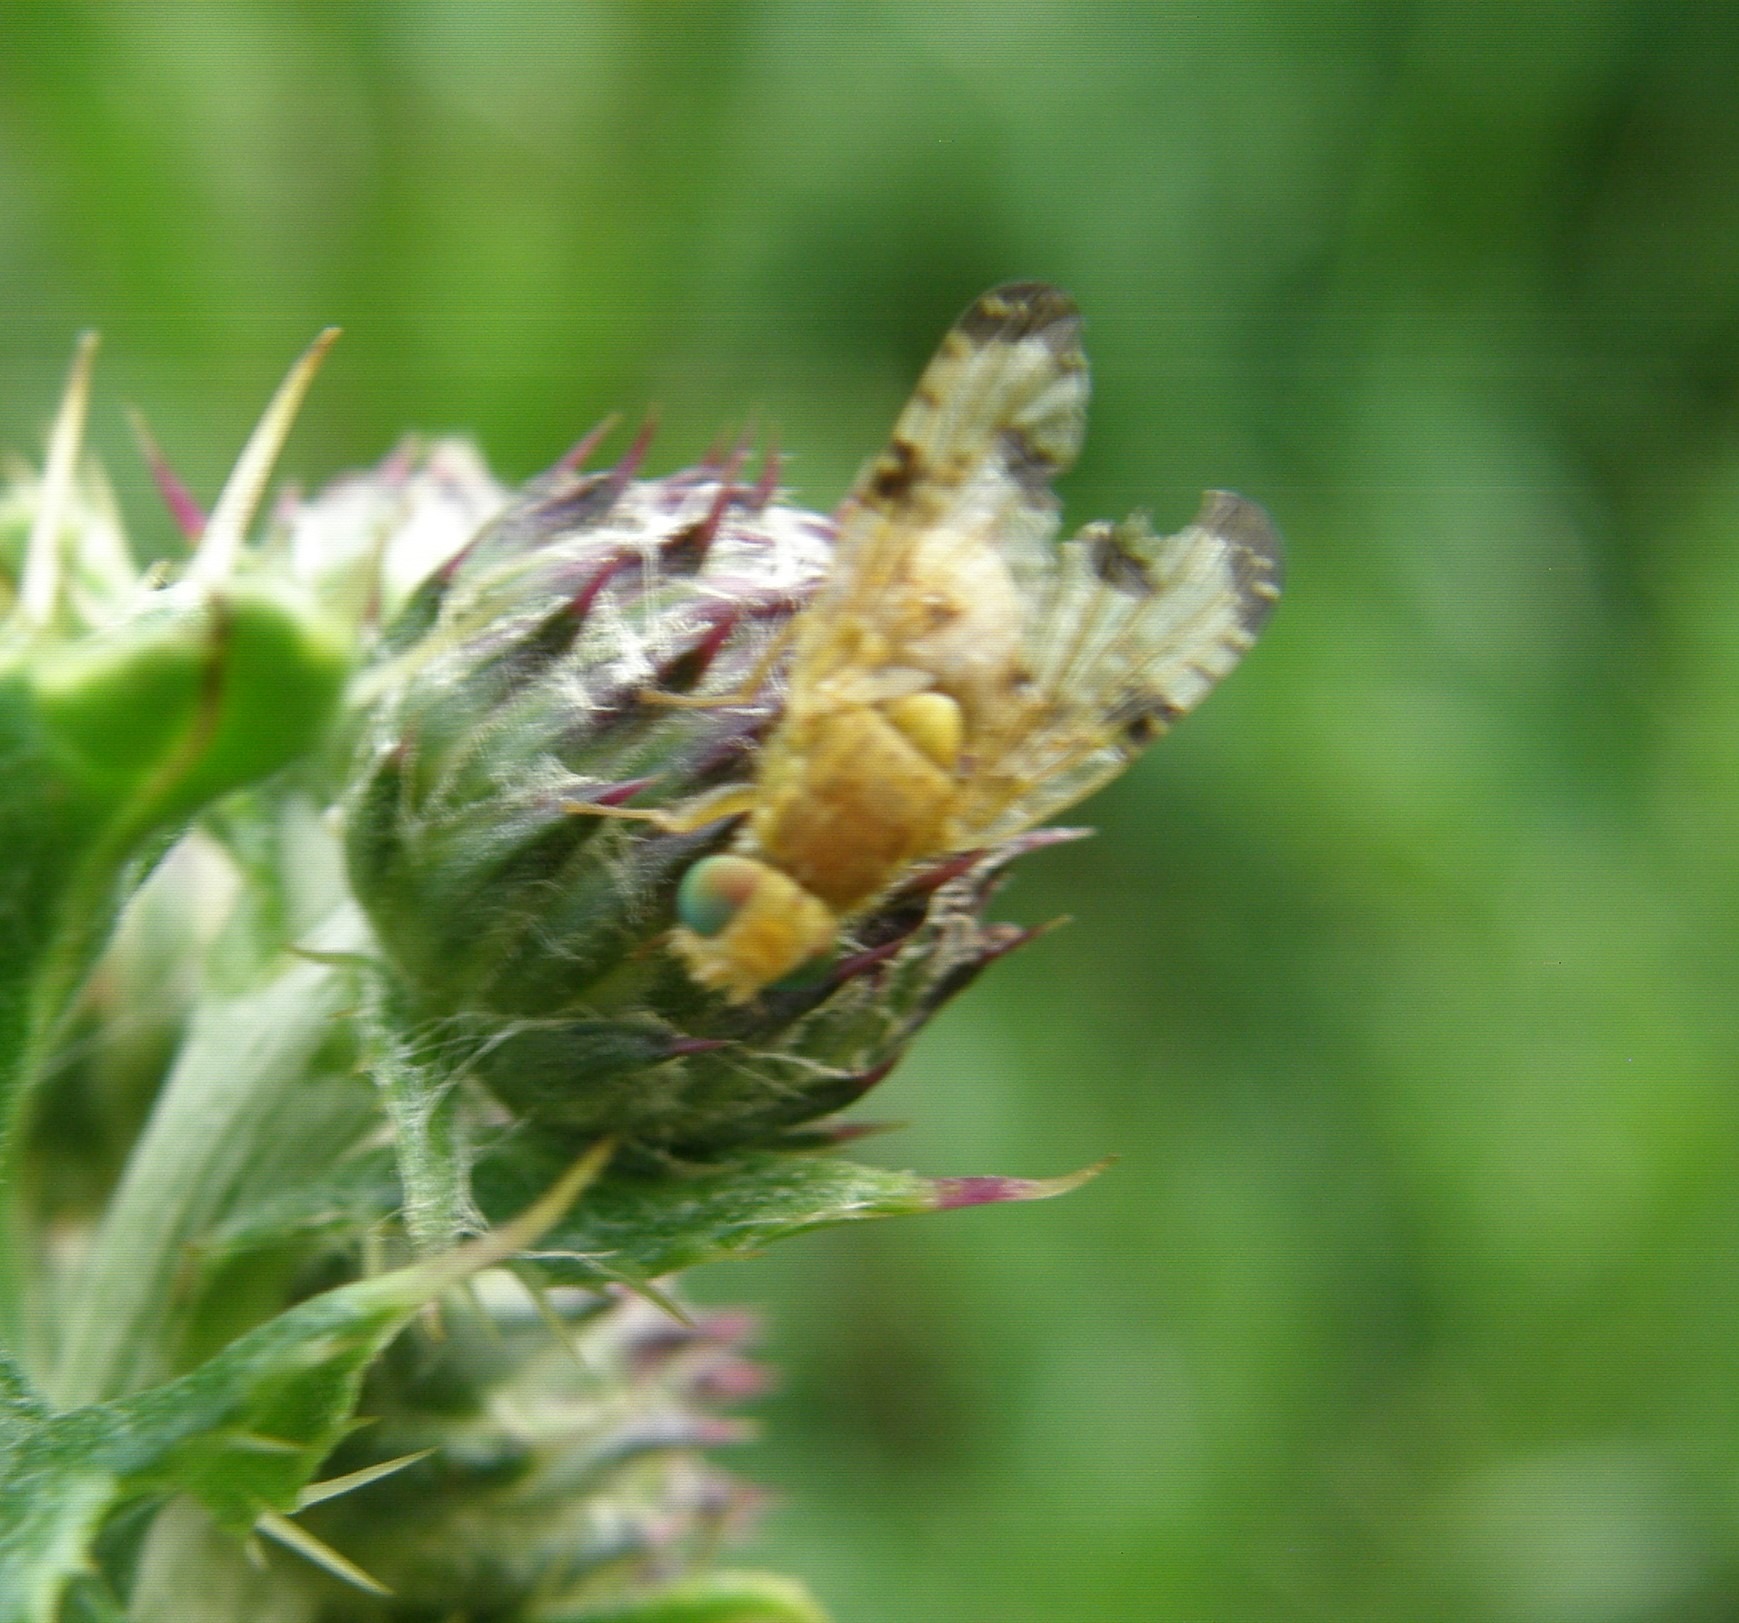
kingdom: Animalia
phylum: Arthropoda
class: Insecta
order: Diptera
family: Tephritidae
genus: Xyphosia
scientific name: Xyphosia miliaria
